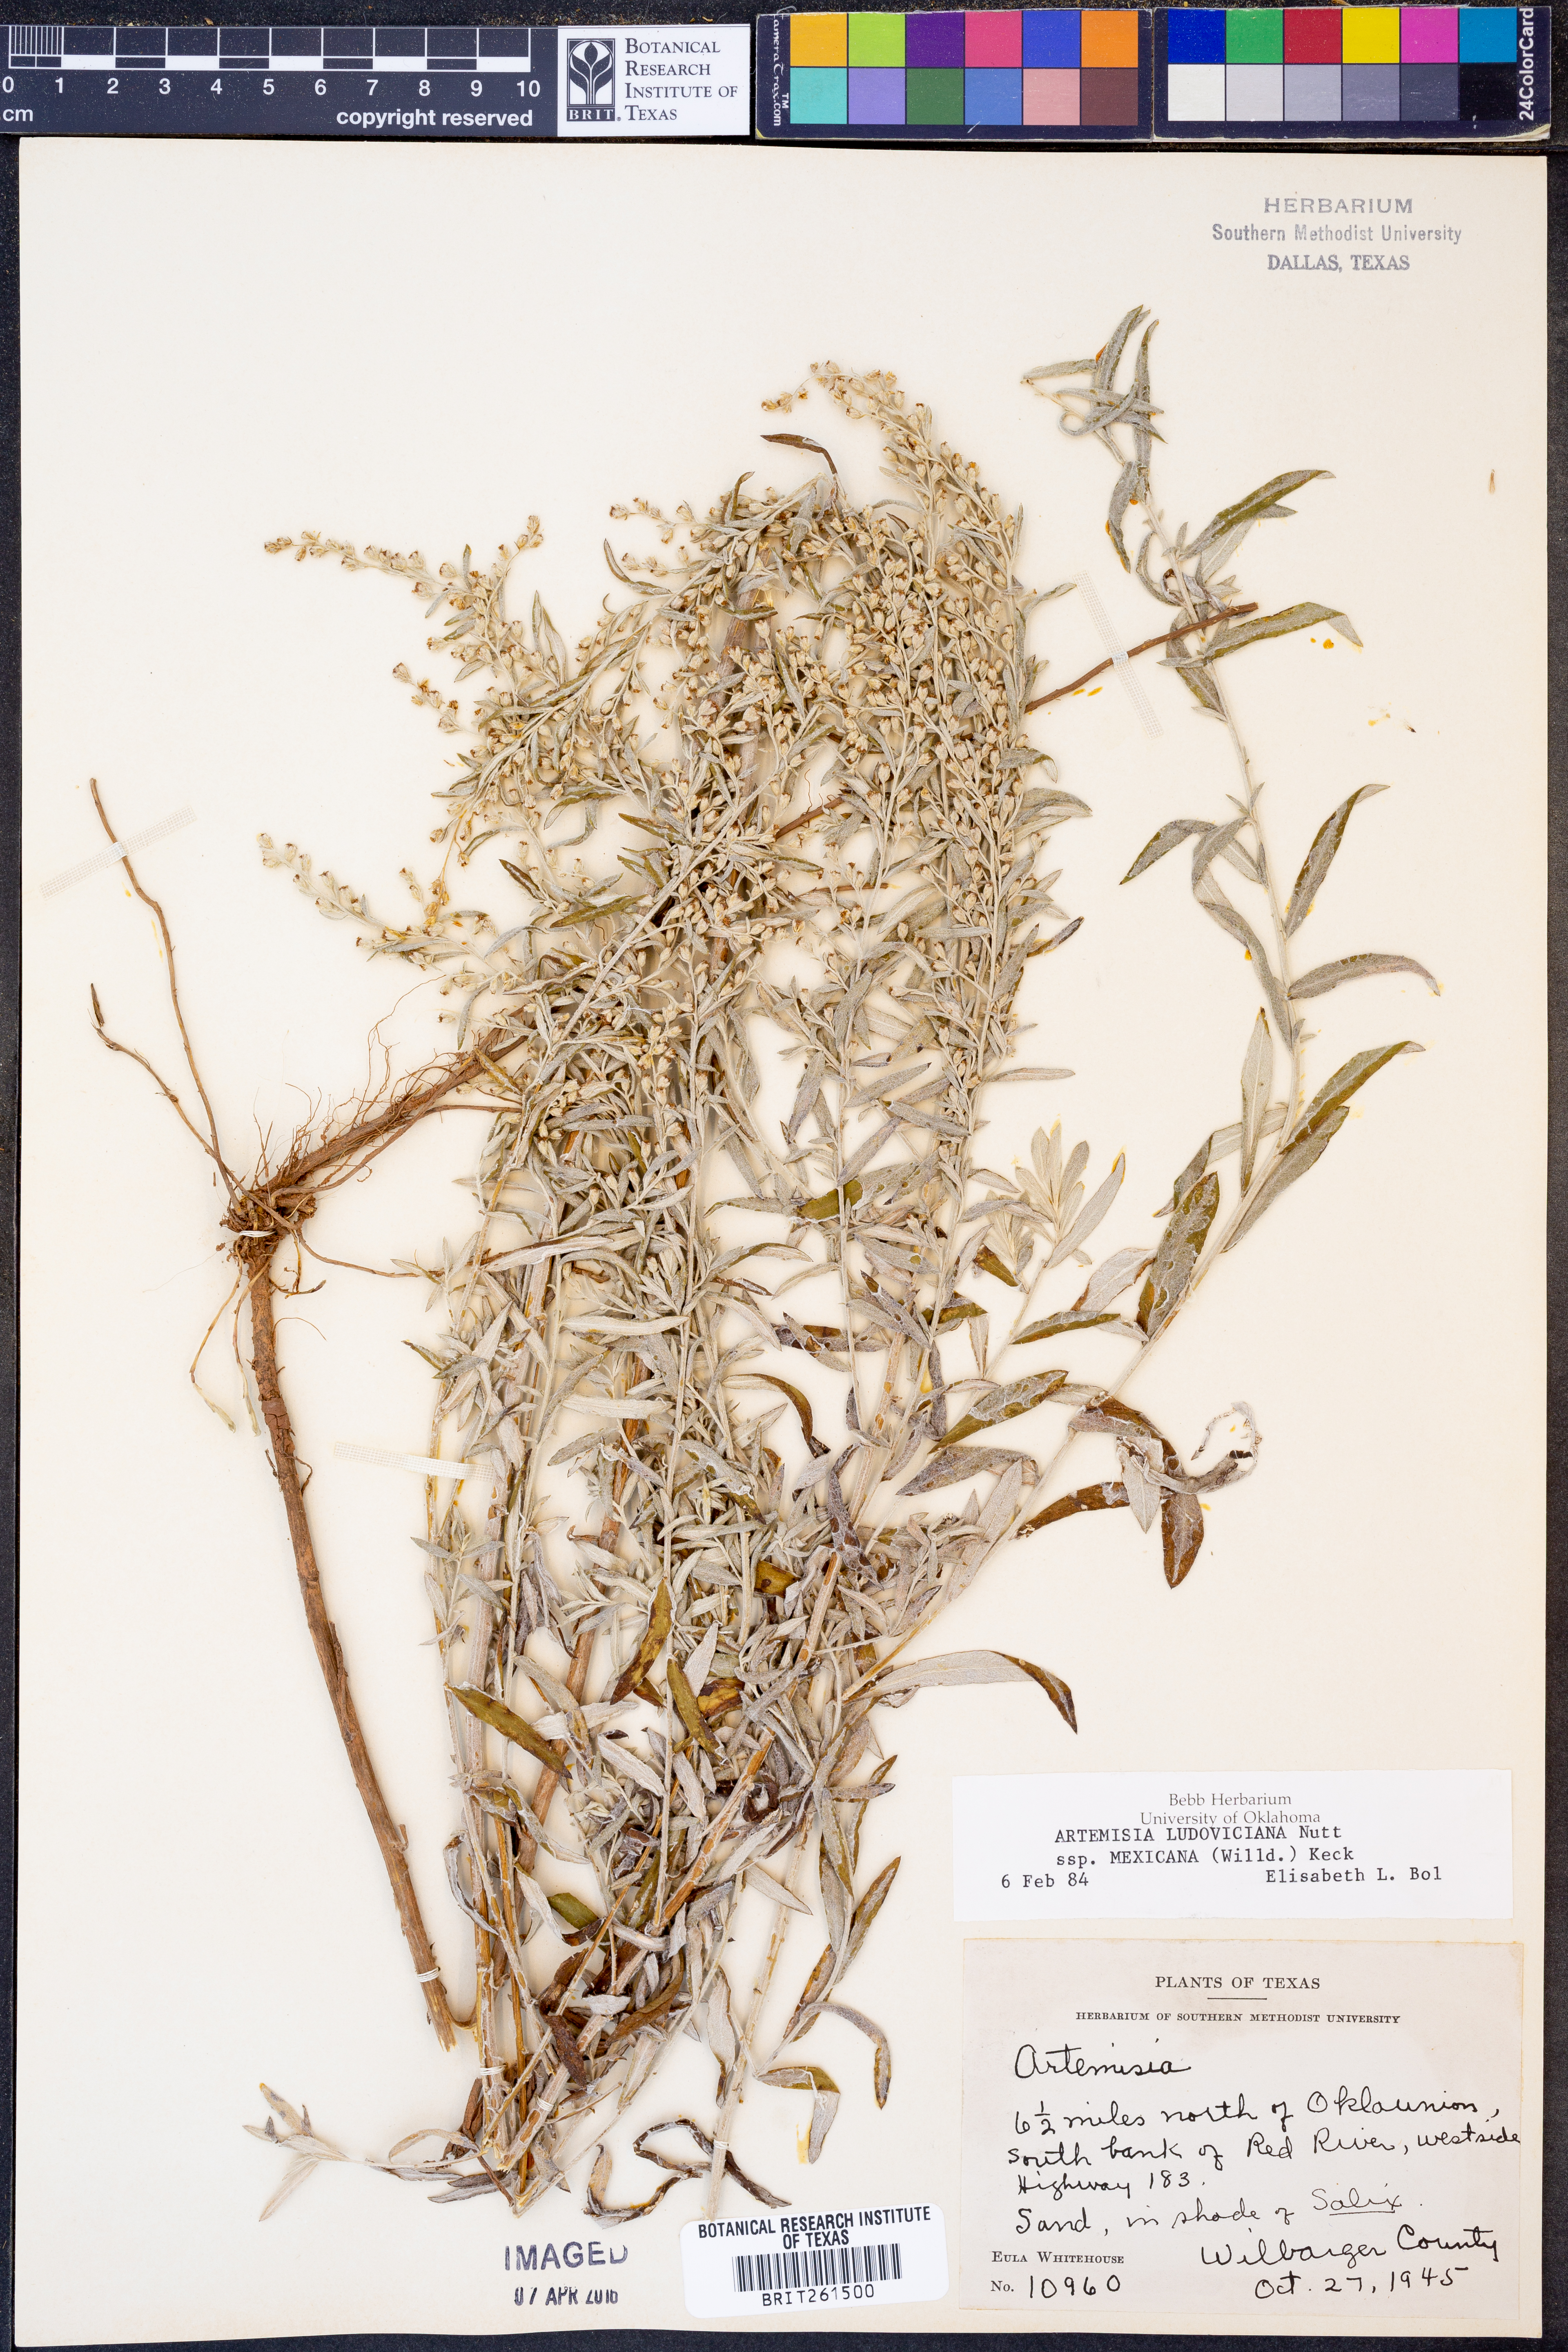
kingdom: Plantae
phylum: Tracheophyta
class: Magnoliopsida
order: Asterales
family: Asteraceae
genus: Artemisia
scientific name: Artemisia ludoviciana
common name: Western mugwort
